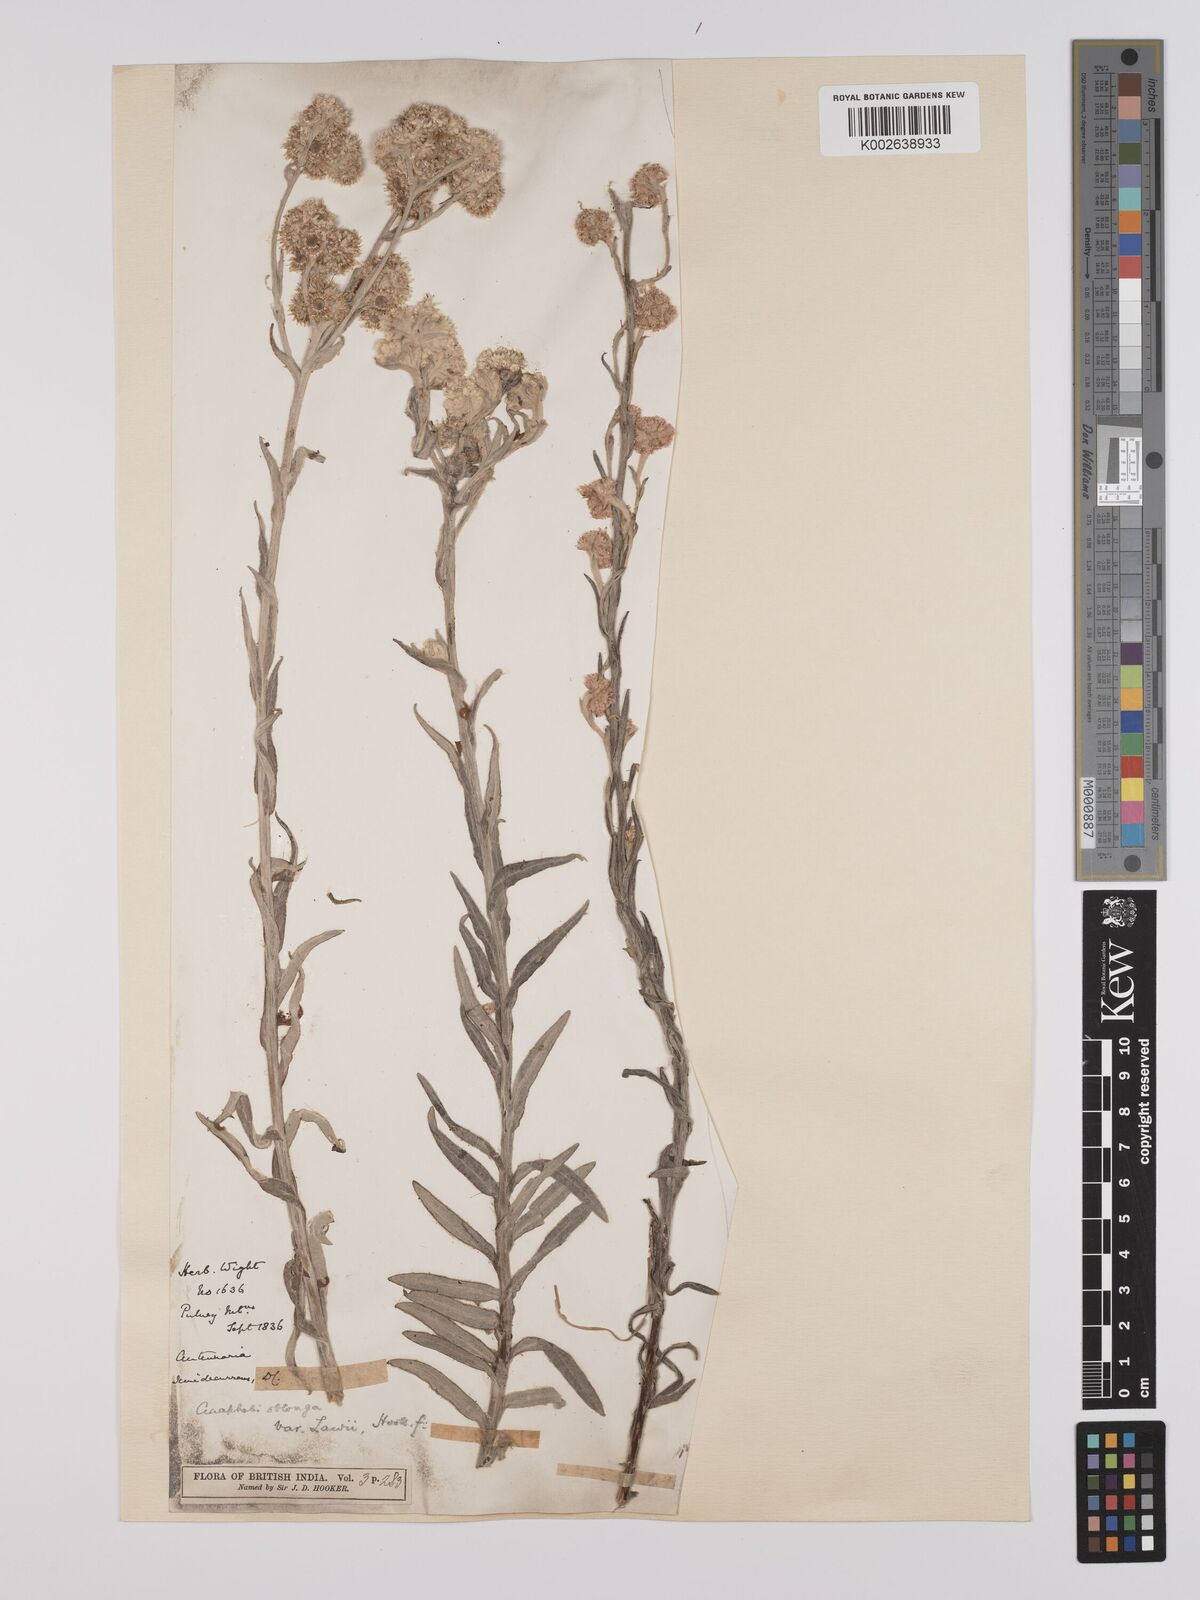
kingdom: Plantae
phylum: Tracheophyta
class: Magnoliopsida
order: Asterales
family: Asteraceae
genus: Anaphalis
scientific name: Anaphalis lawii
